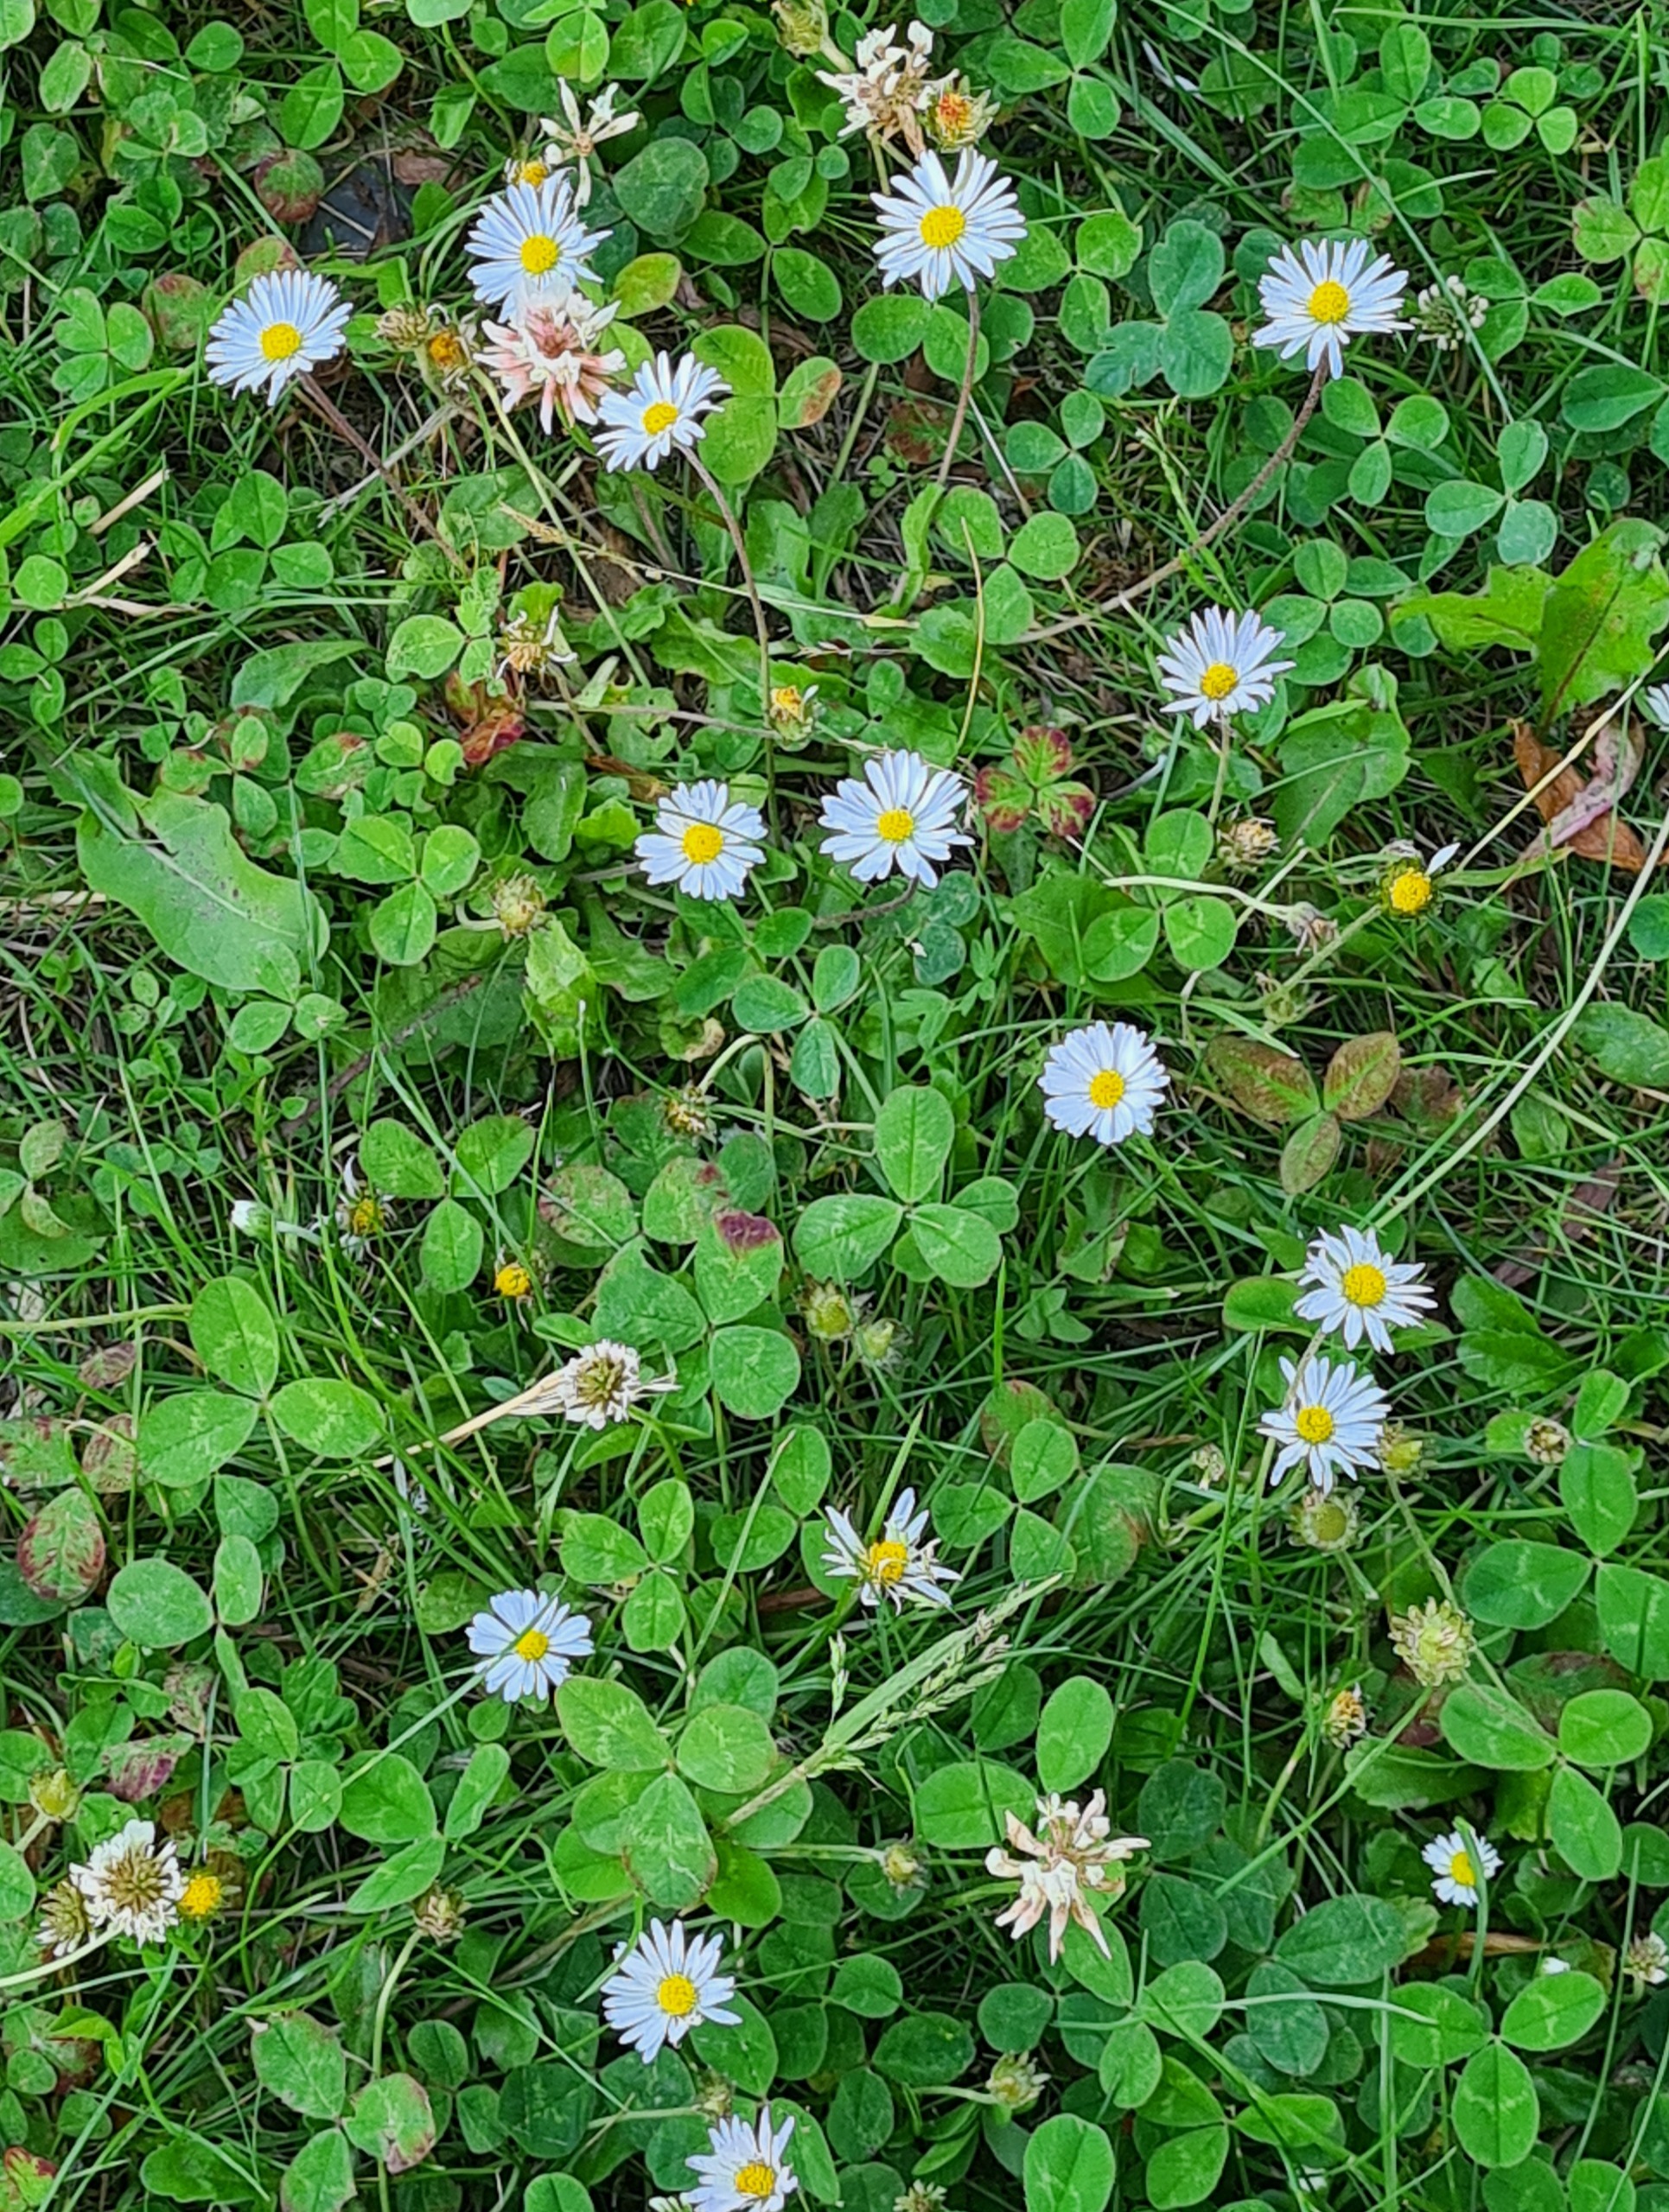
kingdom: Plantae
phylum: Tracheophyta
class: Magnoliopsida
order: Asterales
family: Asteraceae
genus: Bellis
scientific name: Bellis perennis
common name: Tusindfryd
